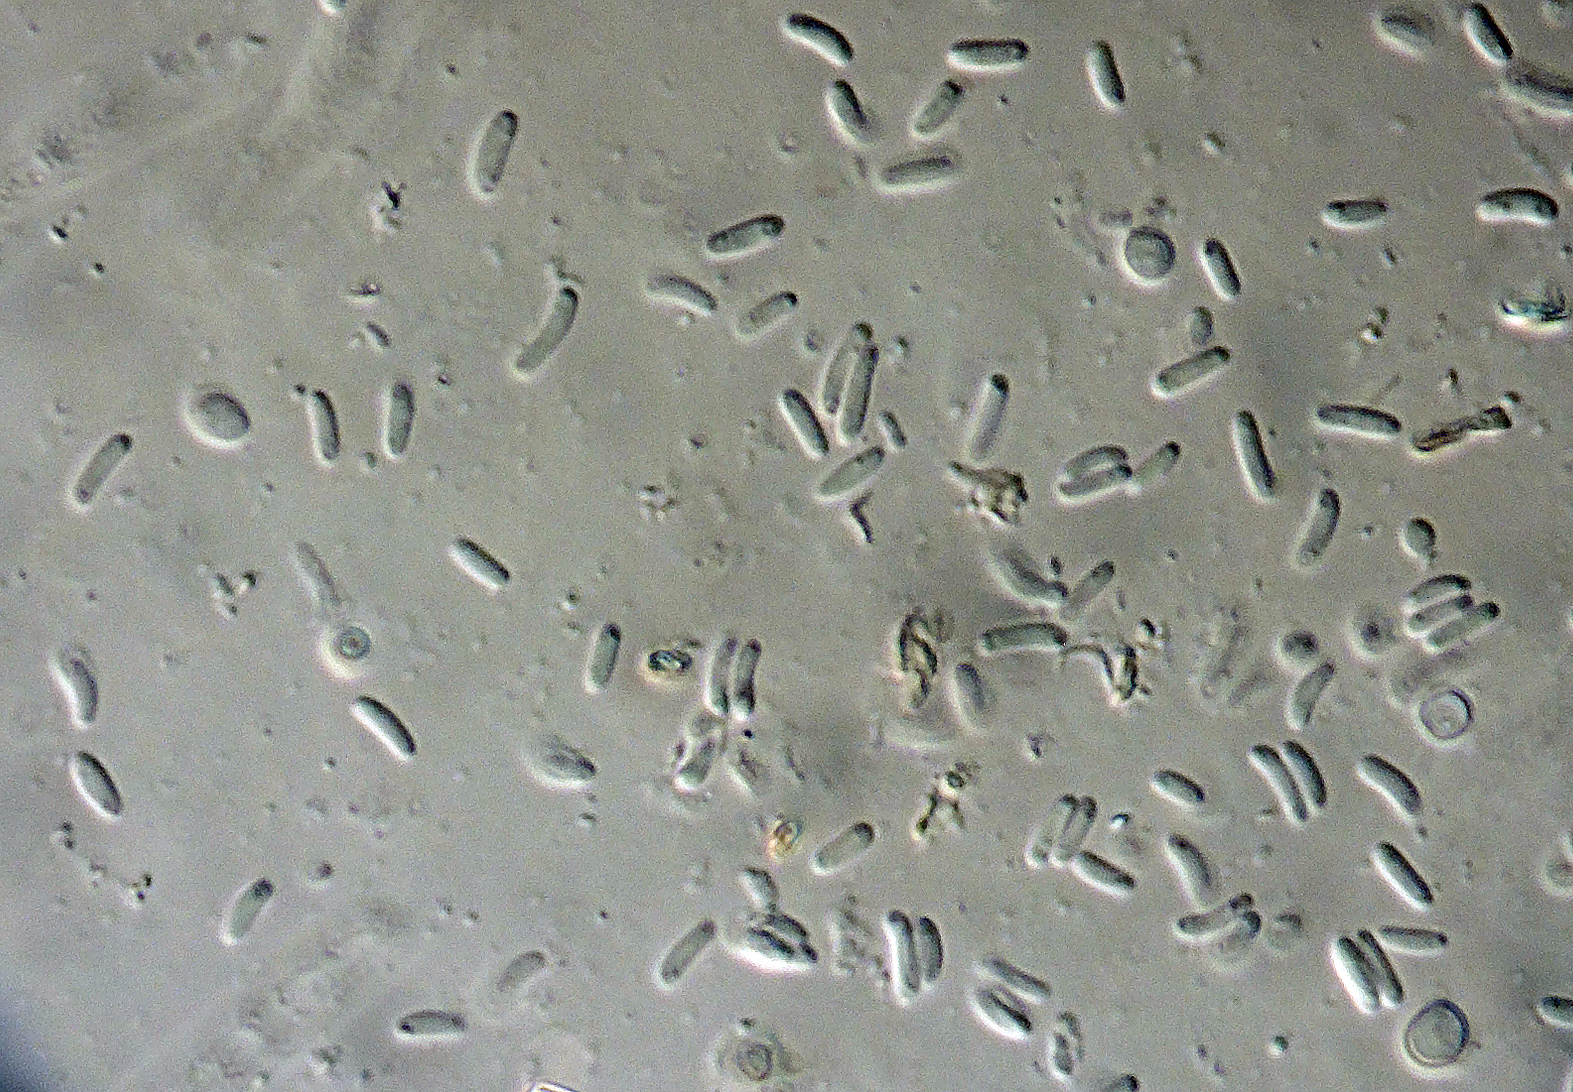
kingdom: Fungi
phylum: Ascomycota
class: Sordariomycetes
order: Coronophorales
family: Coronophoraceae
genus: Coronophora
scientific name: Coronophora angustata
